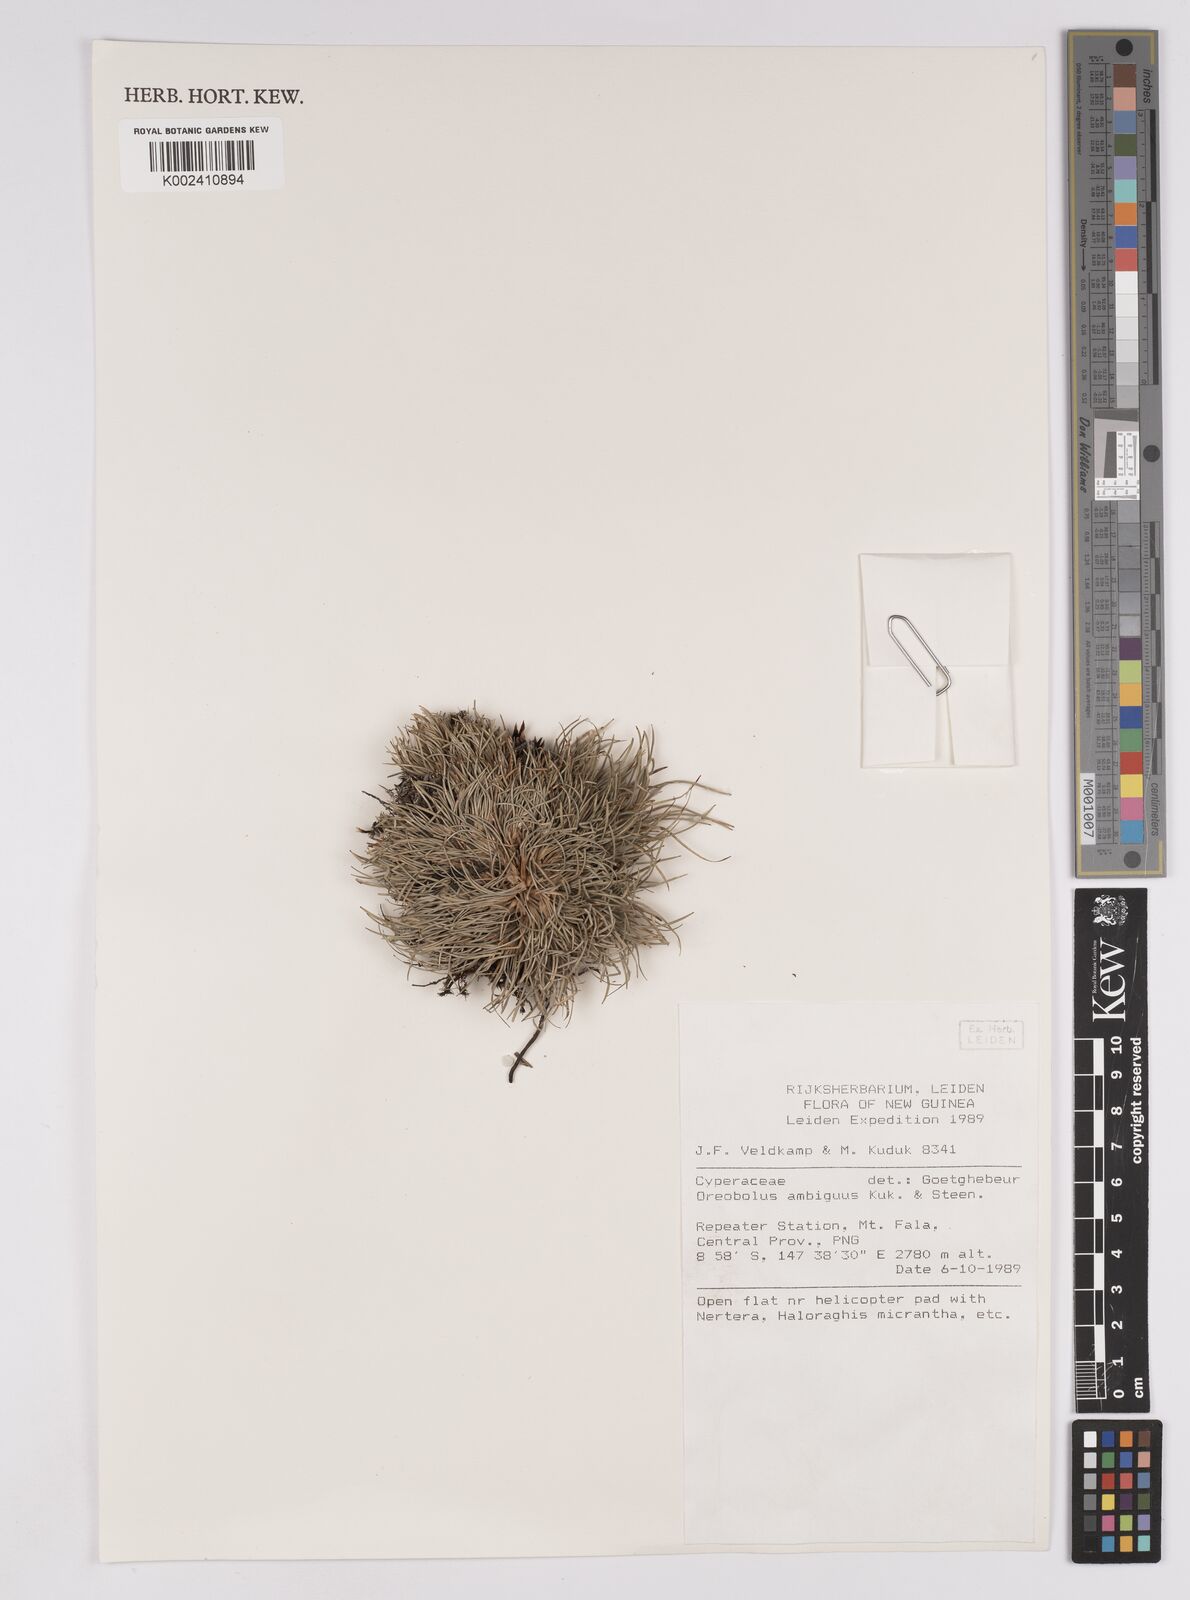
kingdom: Plantae
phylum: Tracheophyta
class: Liliopsida
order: Poales
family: Cyperaceae
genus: Oreobolus
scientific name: Oreobolus ambiguus
